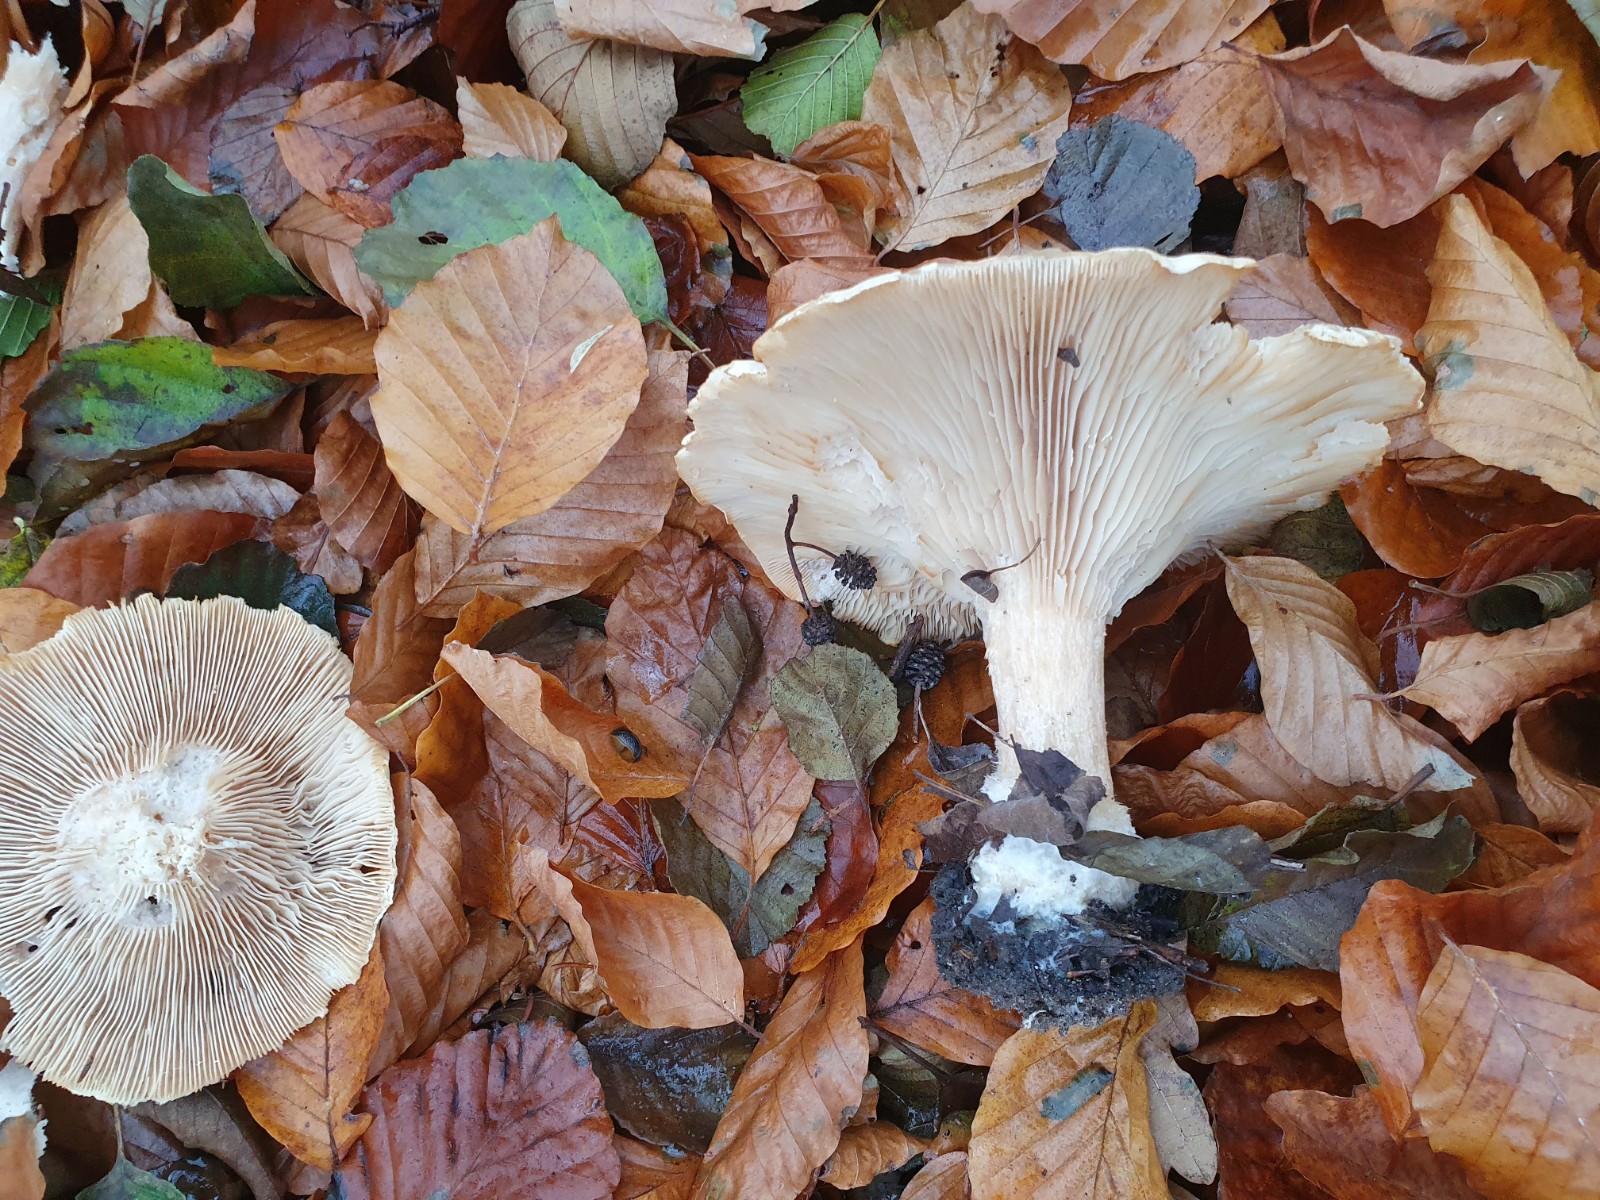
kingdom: Fungi
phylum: Basidiomycota
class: Agaricomycetes
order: Agaricales
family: Tricholomataceae
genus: Infundibulicybe
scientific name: Infundibulicybe geotropa
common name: stor tragthat
